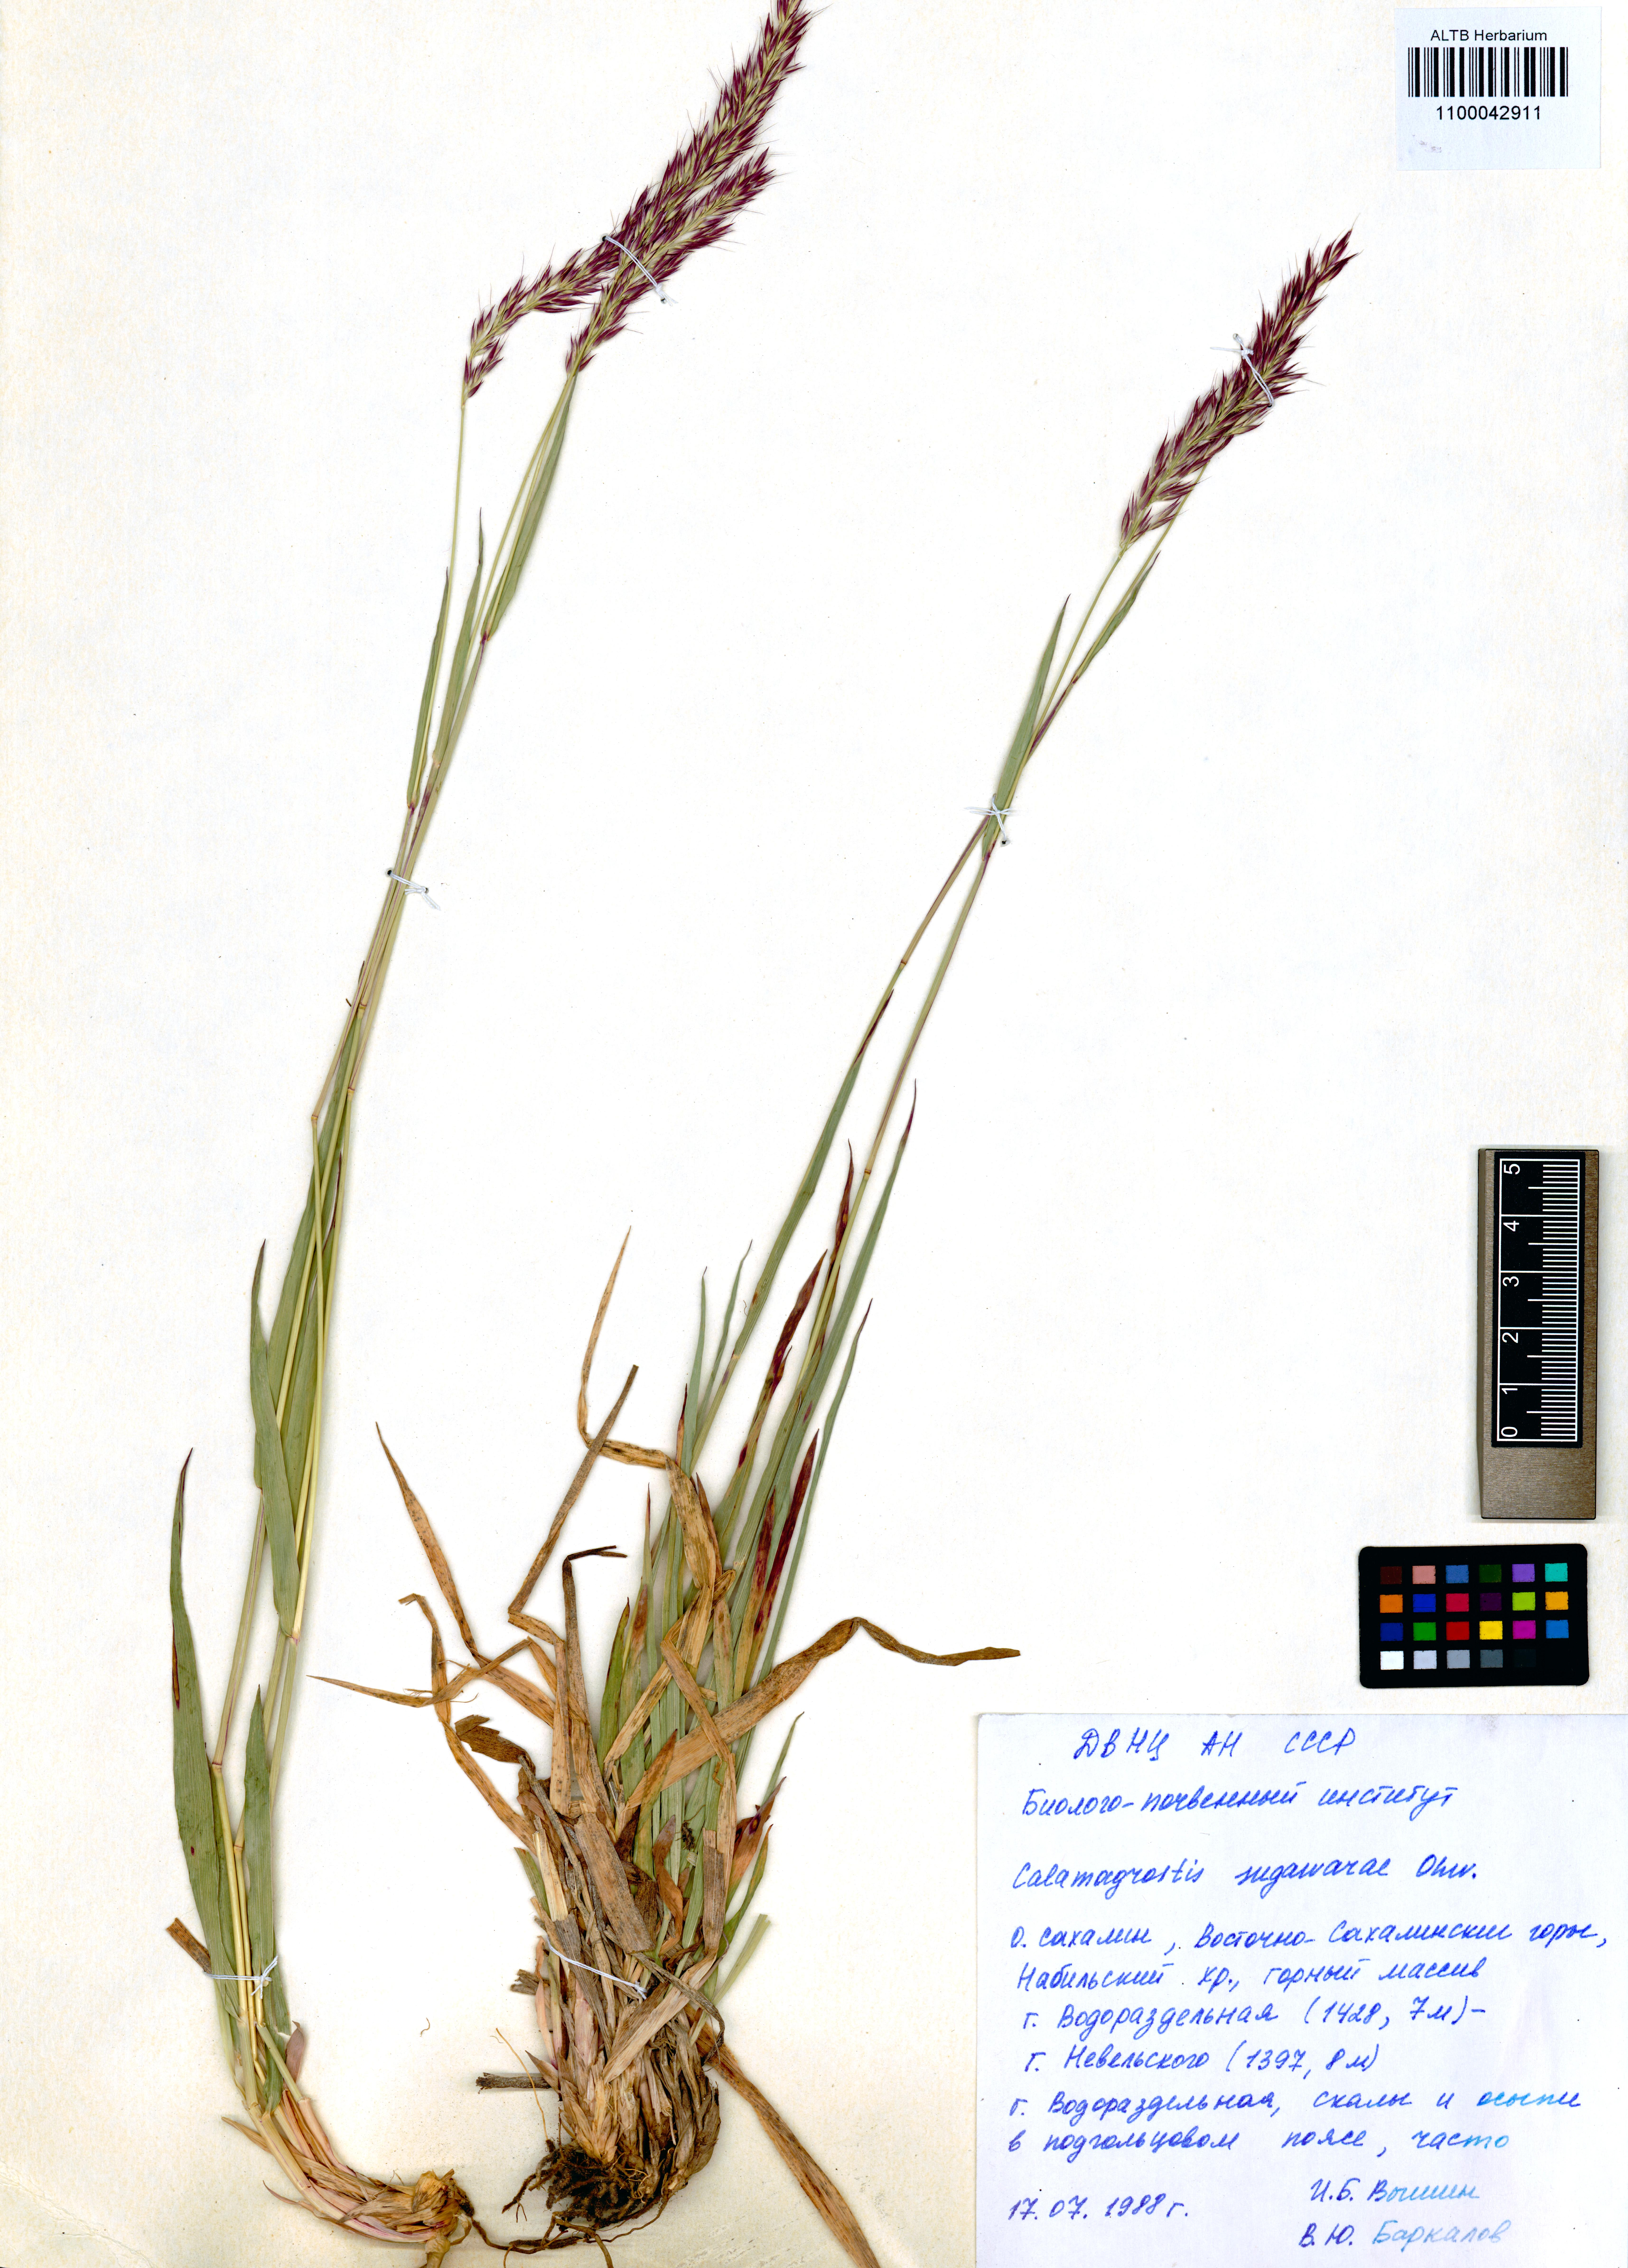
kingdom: Plantae
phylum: Tracheophyta
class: Liliopsida
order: Poales
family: Poaceae
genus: Calamagrostis
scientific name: Calamagrostis arundinacea
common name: Metskastik
